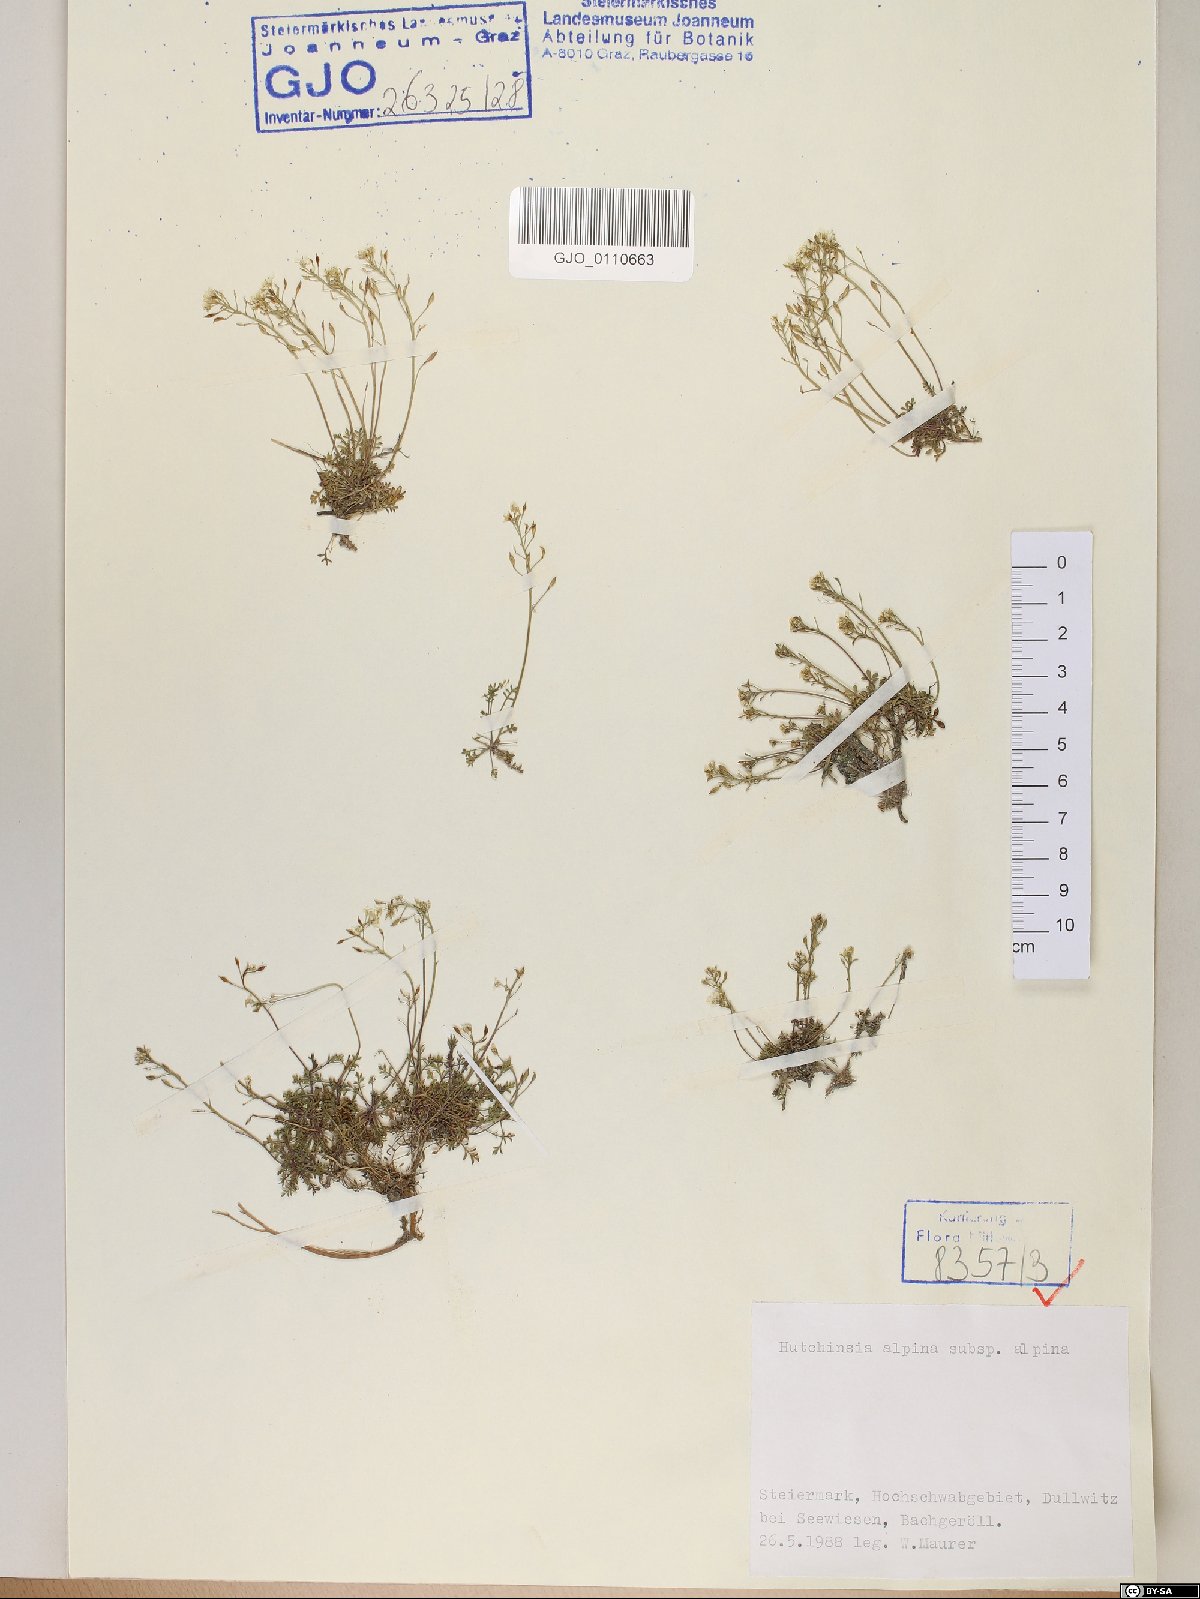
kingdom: Plantae
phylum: Tracheophyta
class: Magnoliopsida
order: Brassicales
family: Brassicaceae
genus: Hornungia
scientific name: Hornungia alpina
